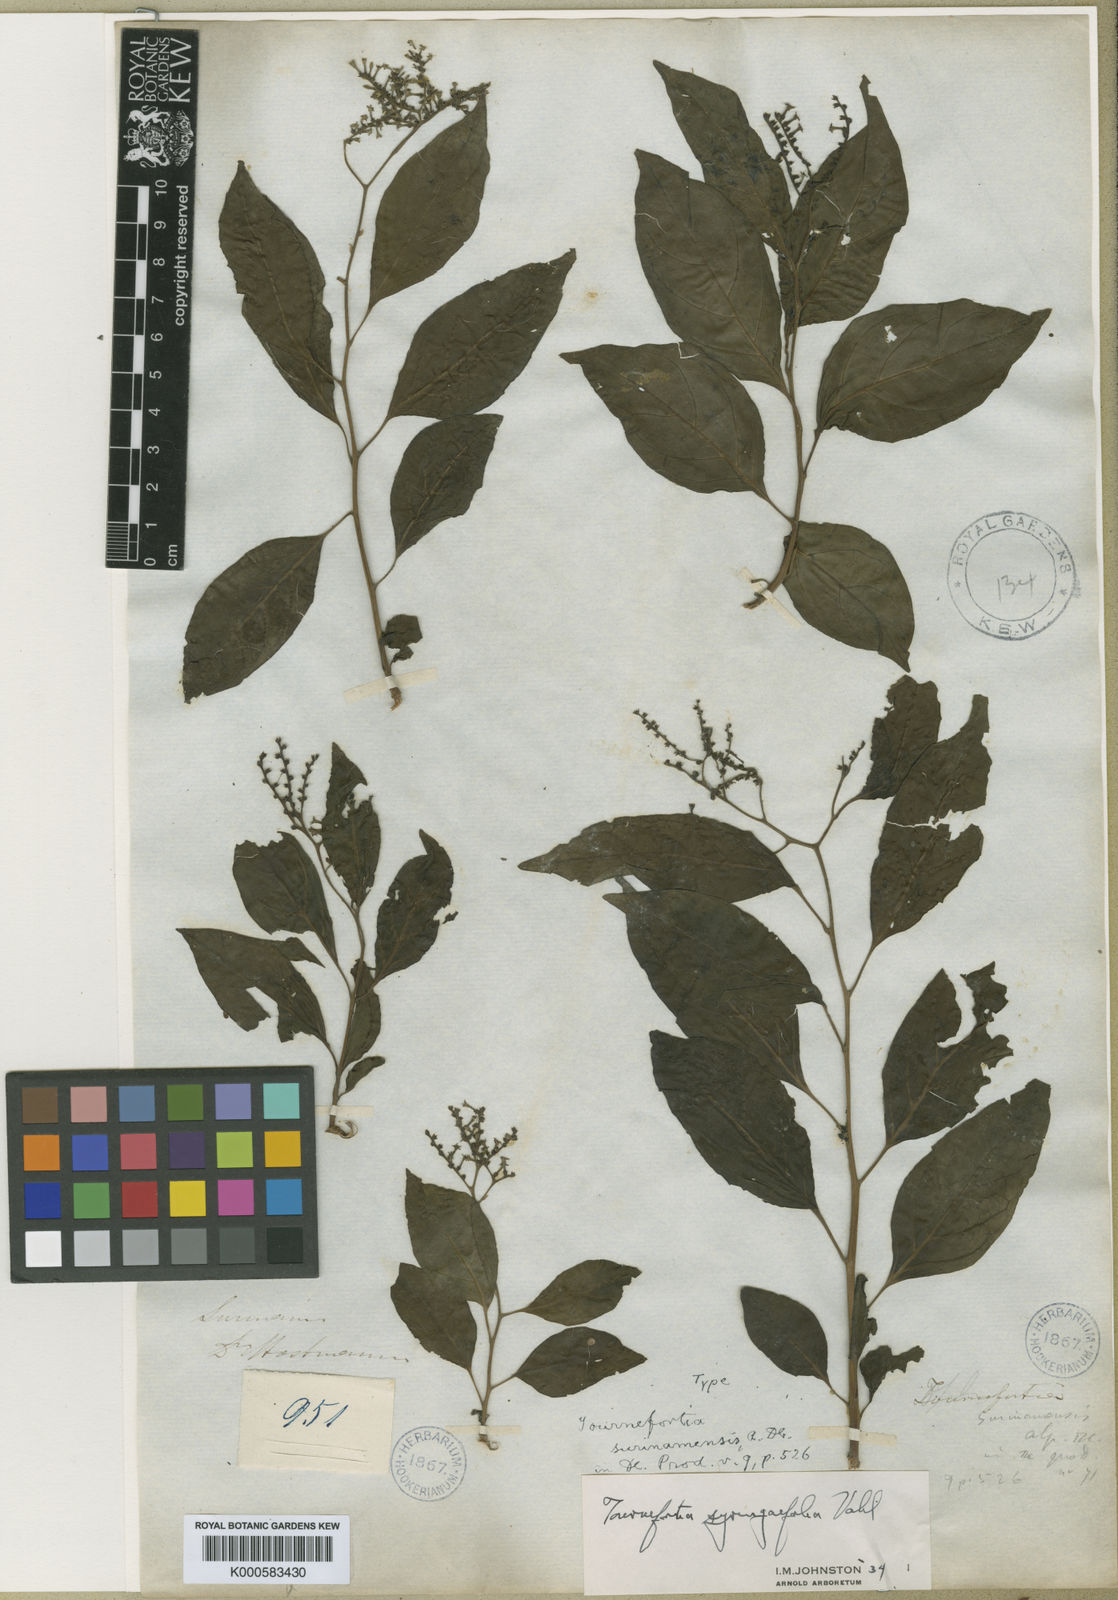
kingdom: Plantae
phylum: Tracheophyta
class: Magnoliopsida
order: Boraginales
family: Heliotropiaceae
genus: Myriopus
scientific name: Myriopus maculatus
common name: Laurel-leaf soldierbush
